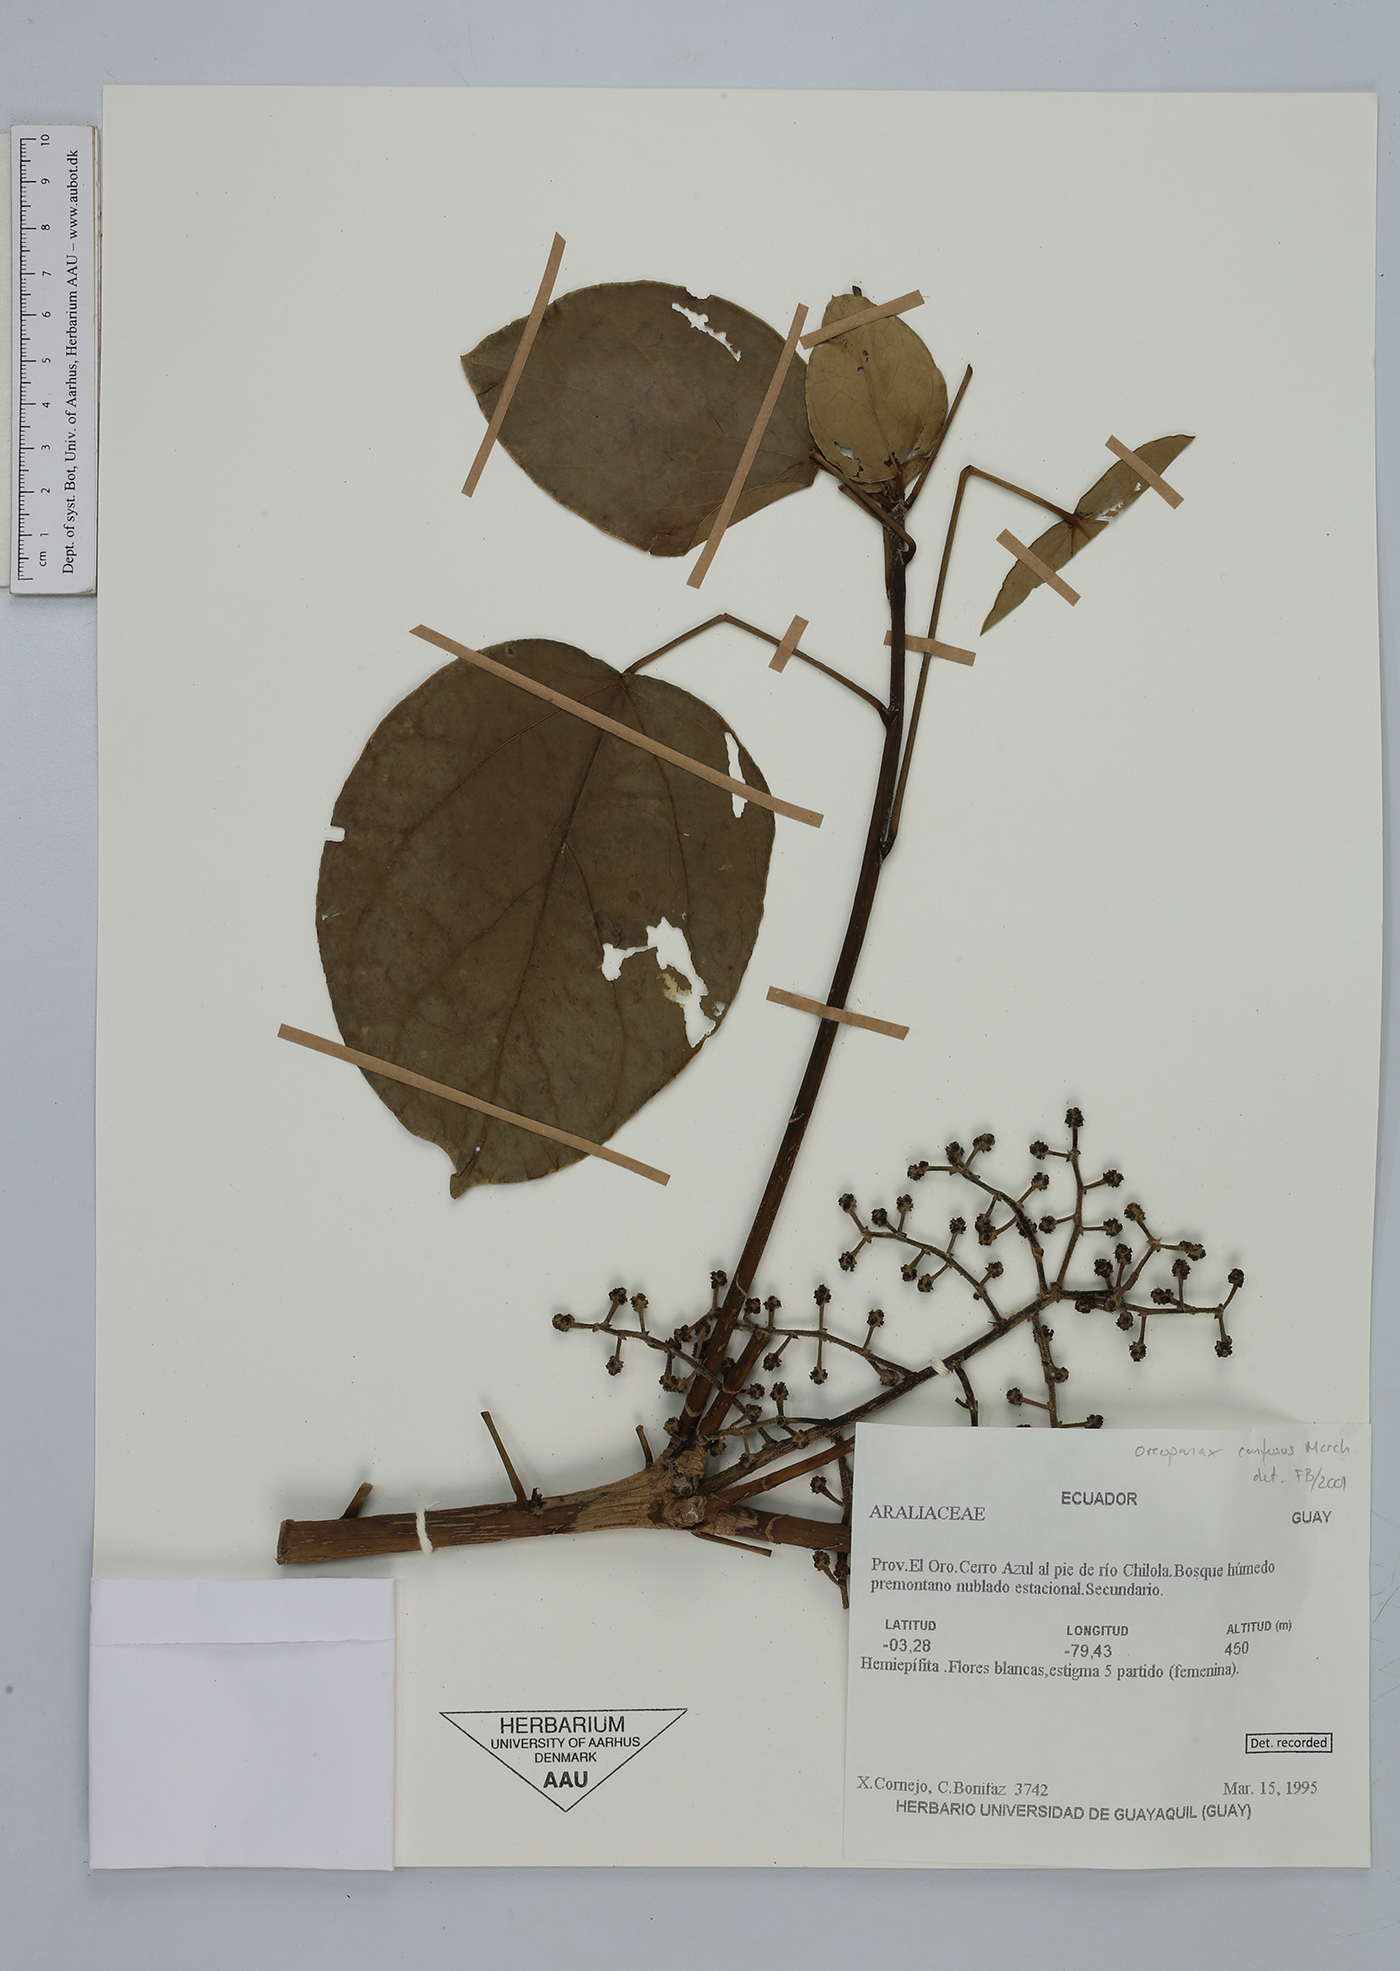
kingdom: Plantae
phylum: Tracheophyta
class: Magnoliopsida
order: Apiales
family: Araliaceae
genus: Oreopanax
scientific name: Oreopanax confusus
